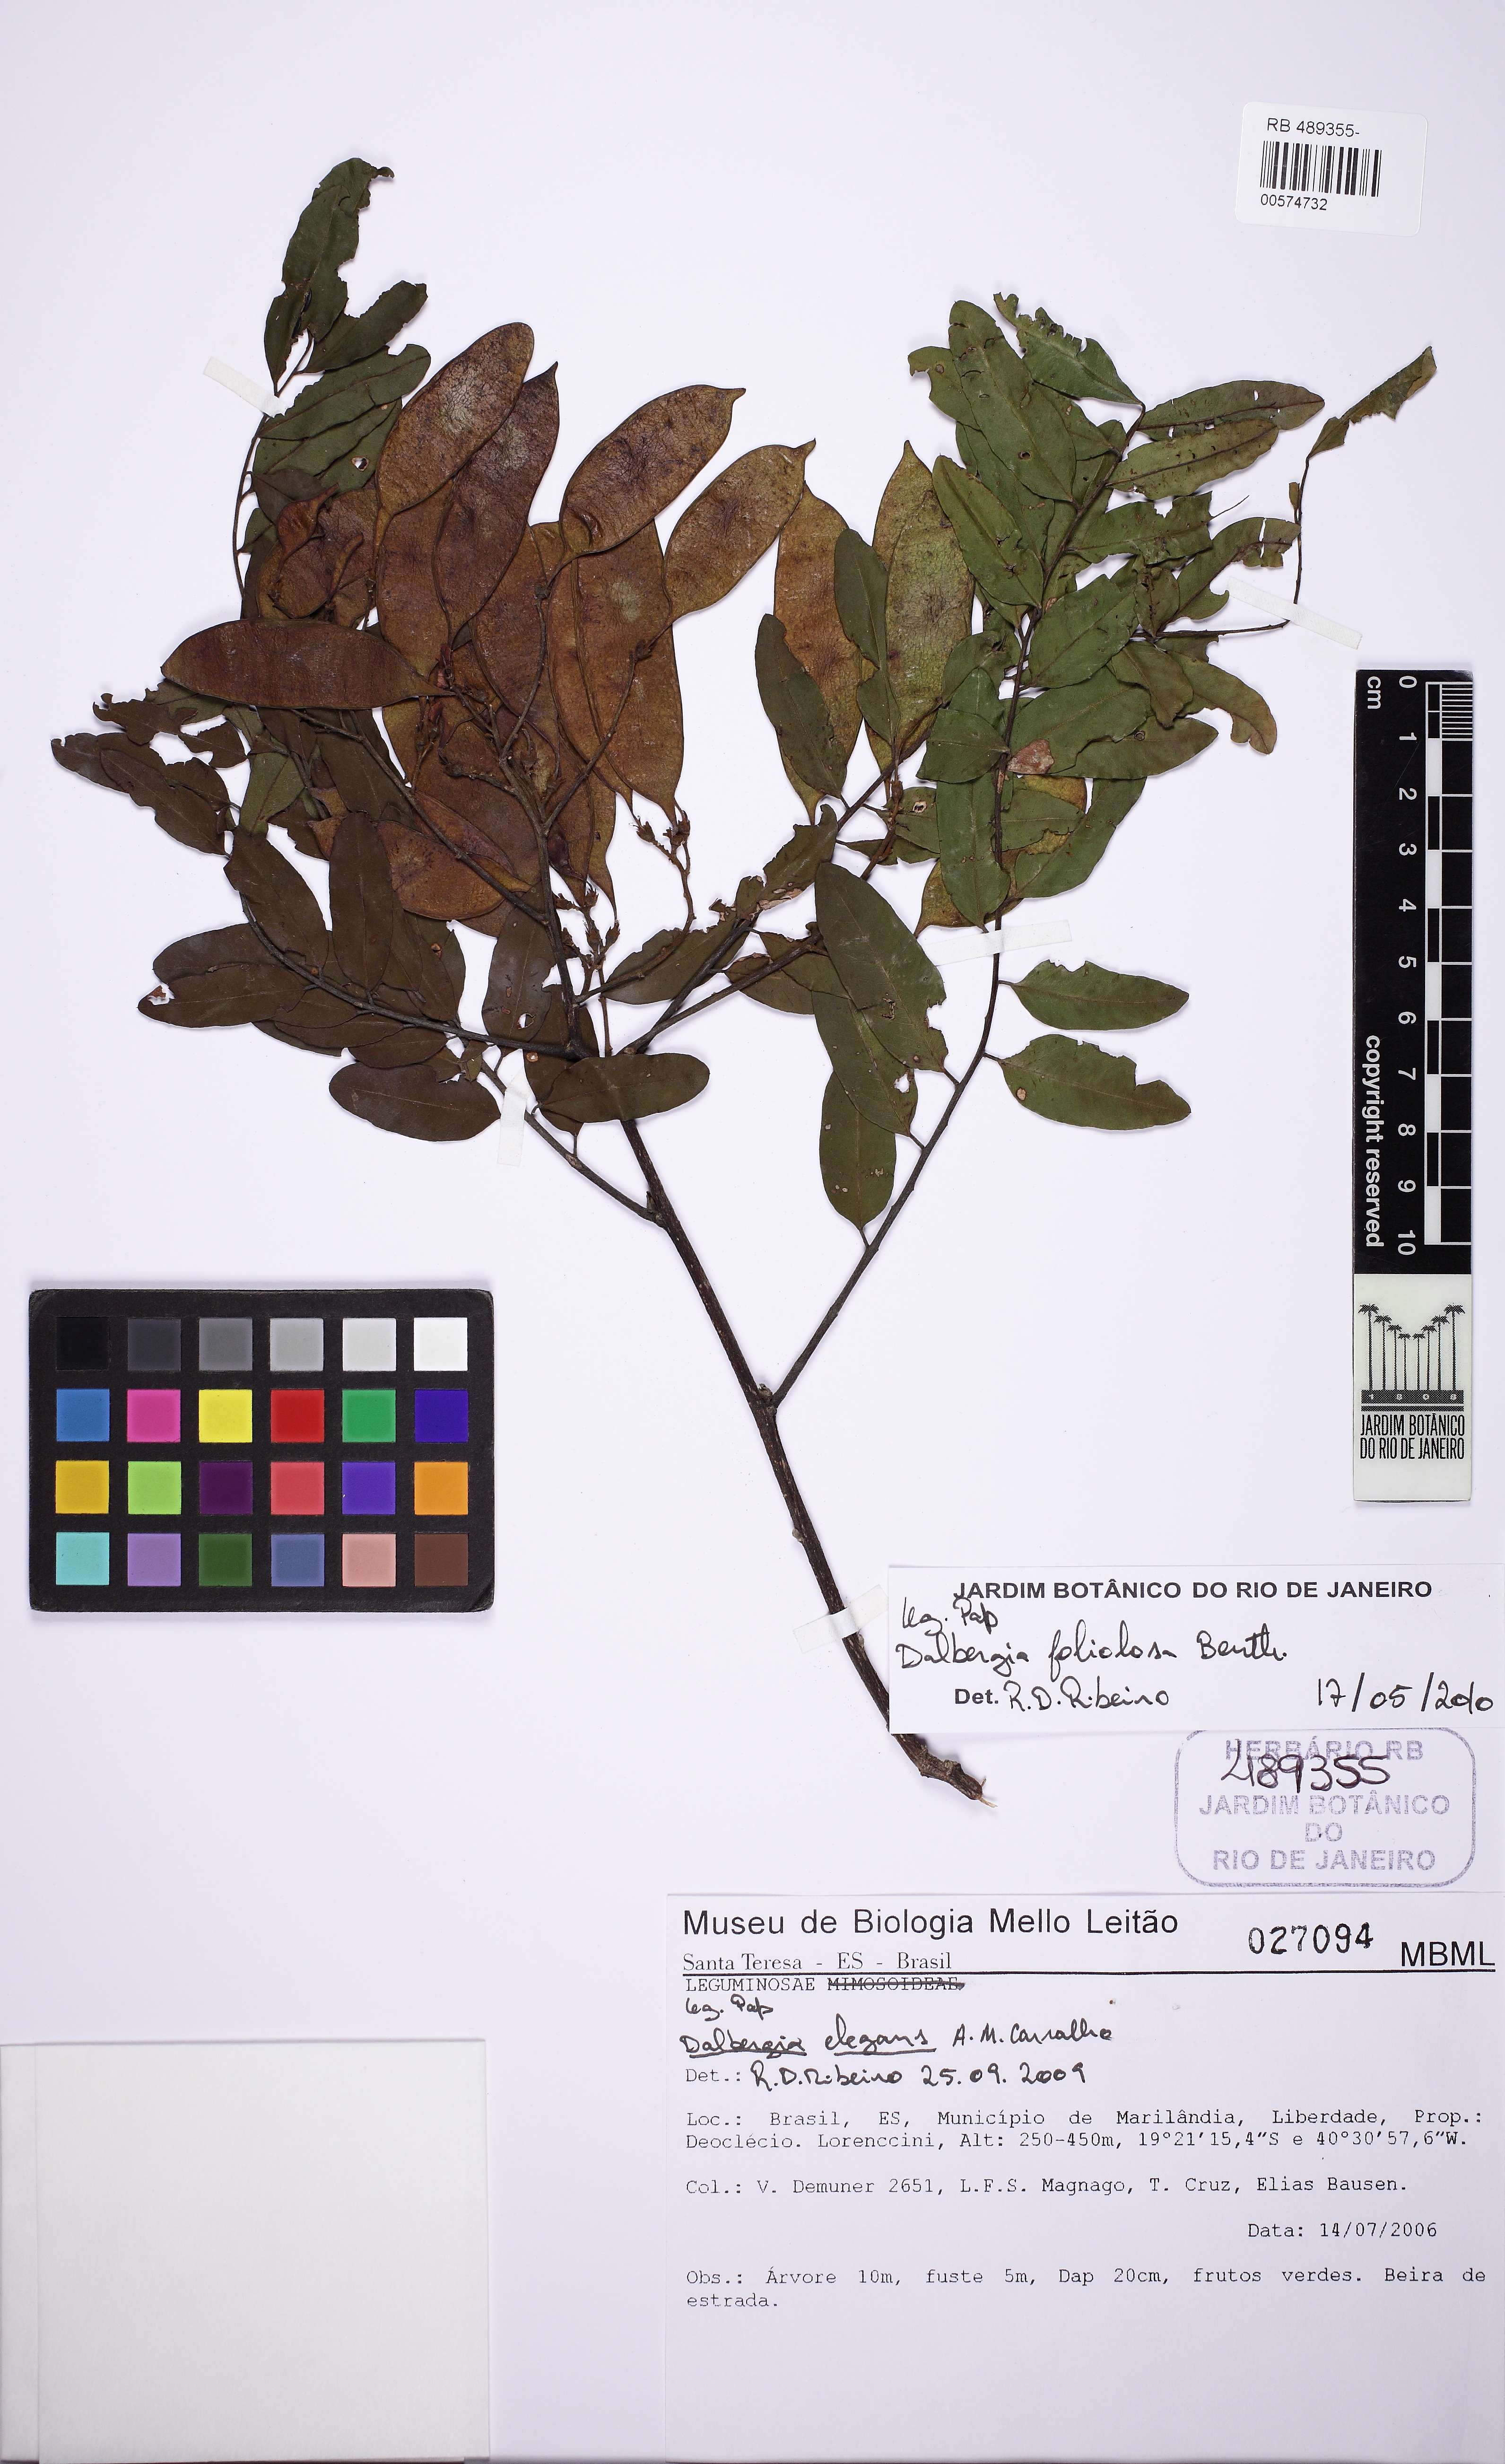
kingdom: Plantae
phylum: Tracheophyta
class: Magnoliopsida
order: Fabales
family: Fabaceae
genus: Dalbergia
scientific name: Dalbergia foliolosa
